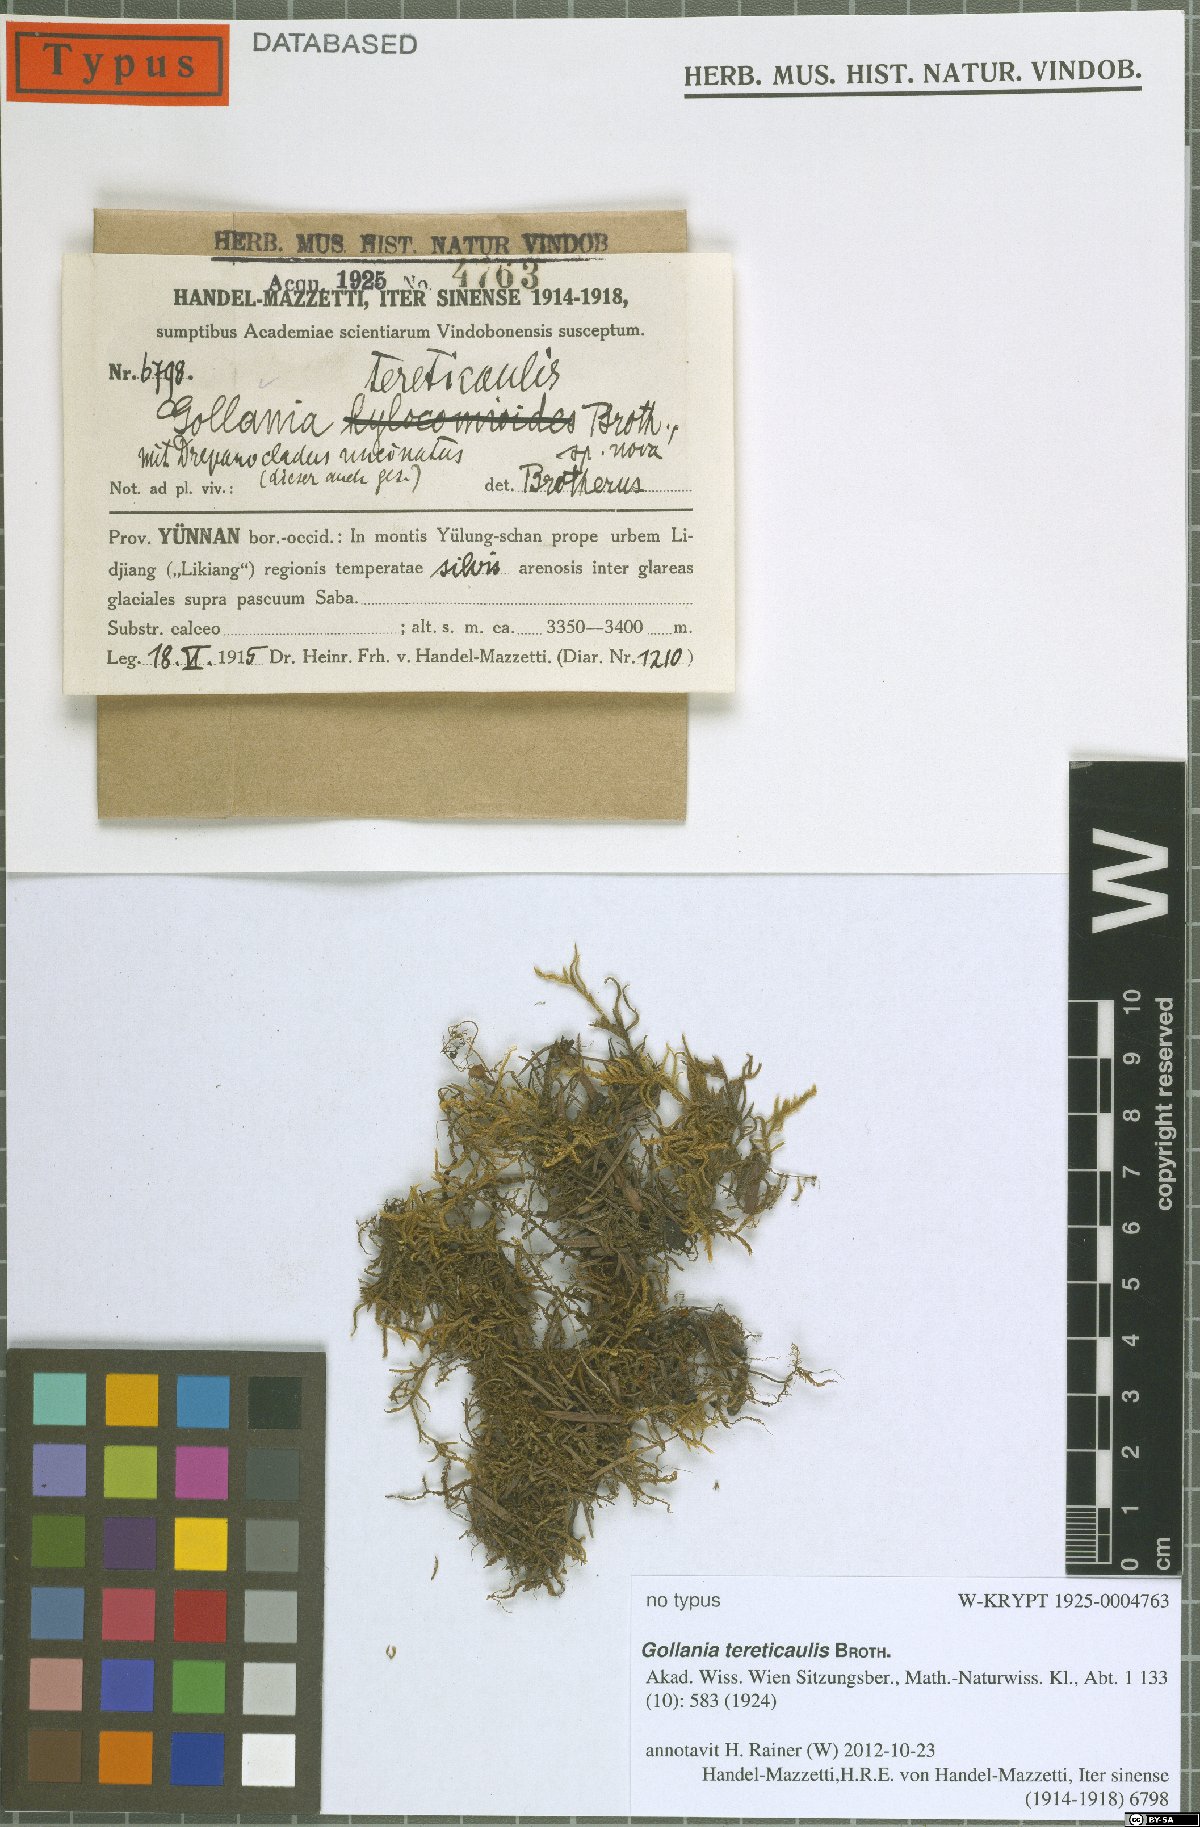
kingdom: Plantae
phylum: Bryophyta
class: Bryopsida
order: Hypnales
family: Hypnaceae
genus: Gollania
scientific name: Gollania tereticaulis
